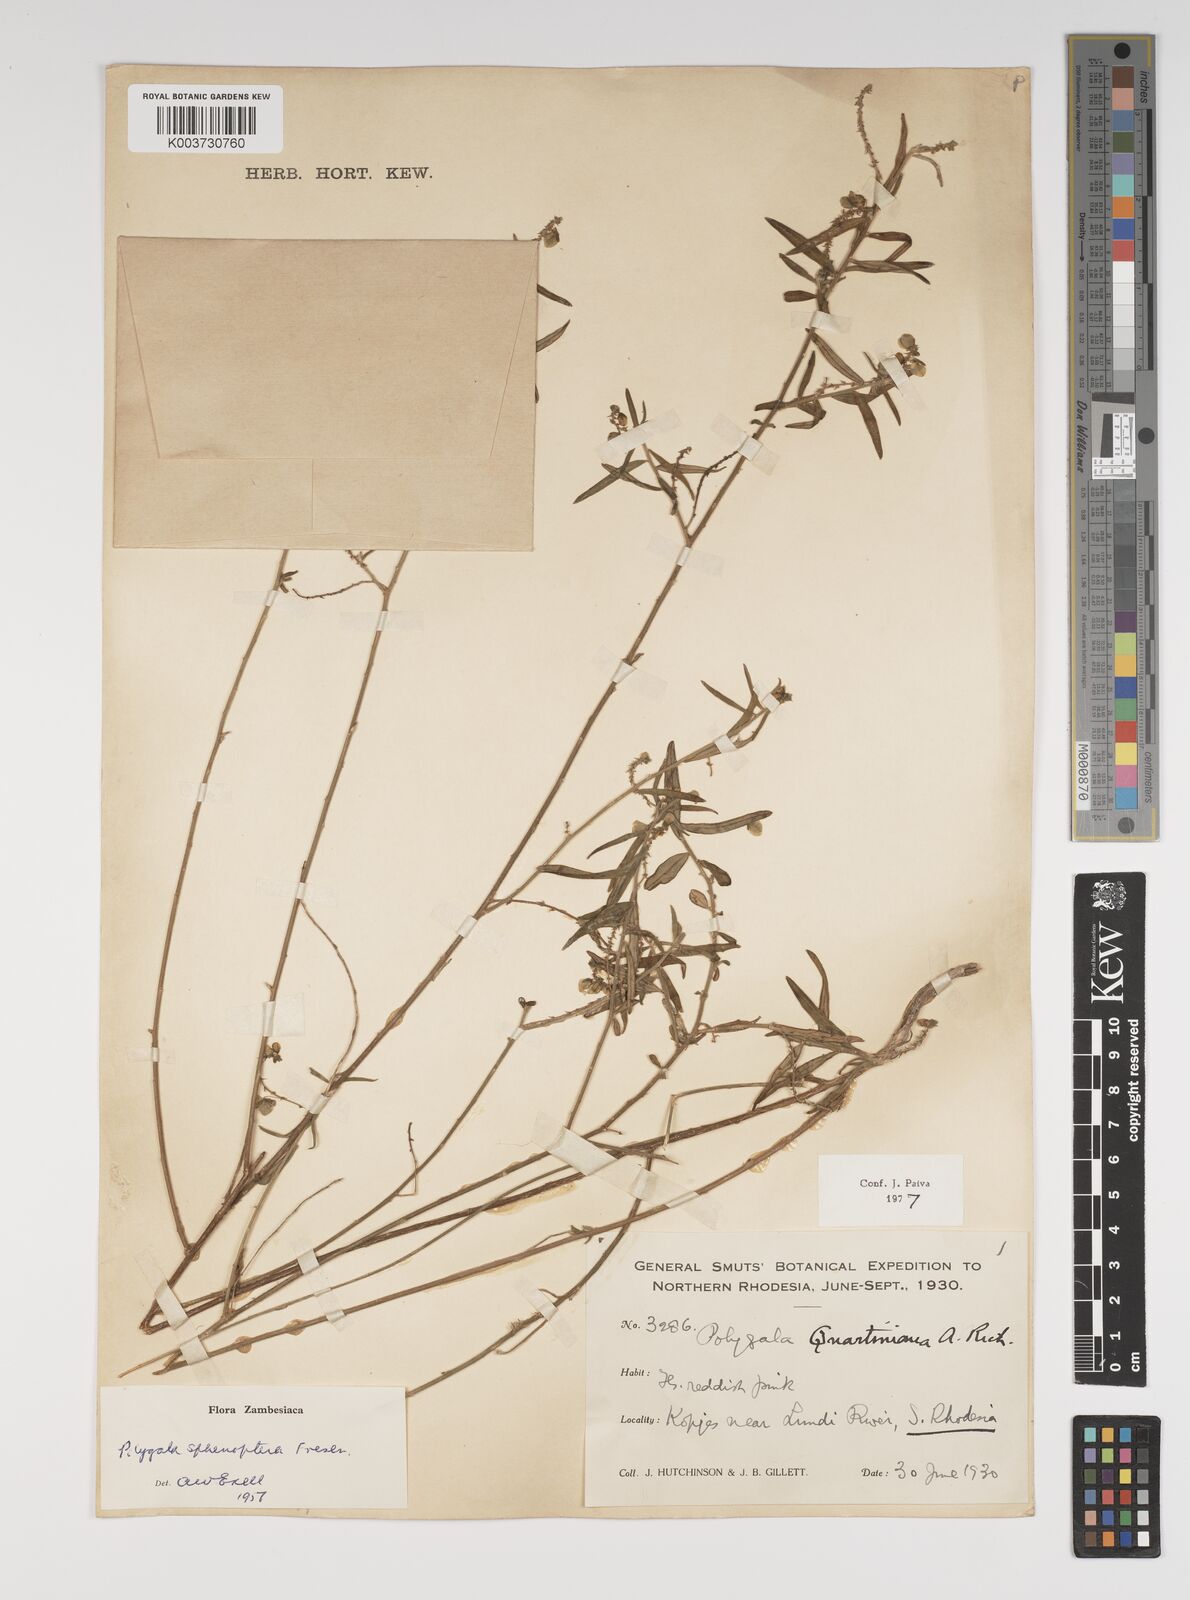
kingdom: Plantae
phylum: Tracheophyta
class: Magnoliopsida
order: Fabales
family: Polygalaceae
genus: Polygala
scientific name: Polygala sphenoptera
